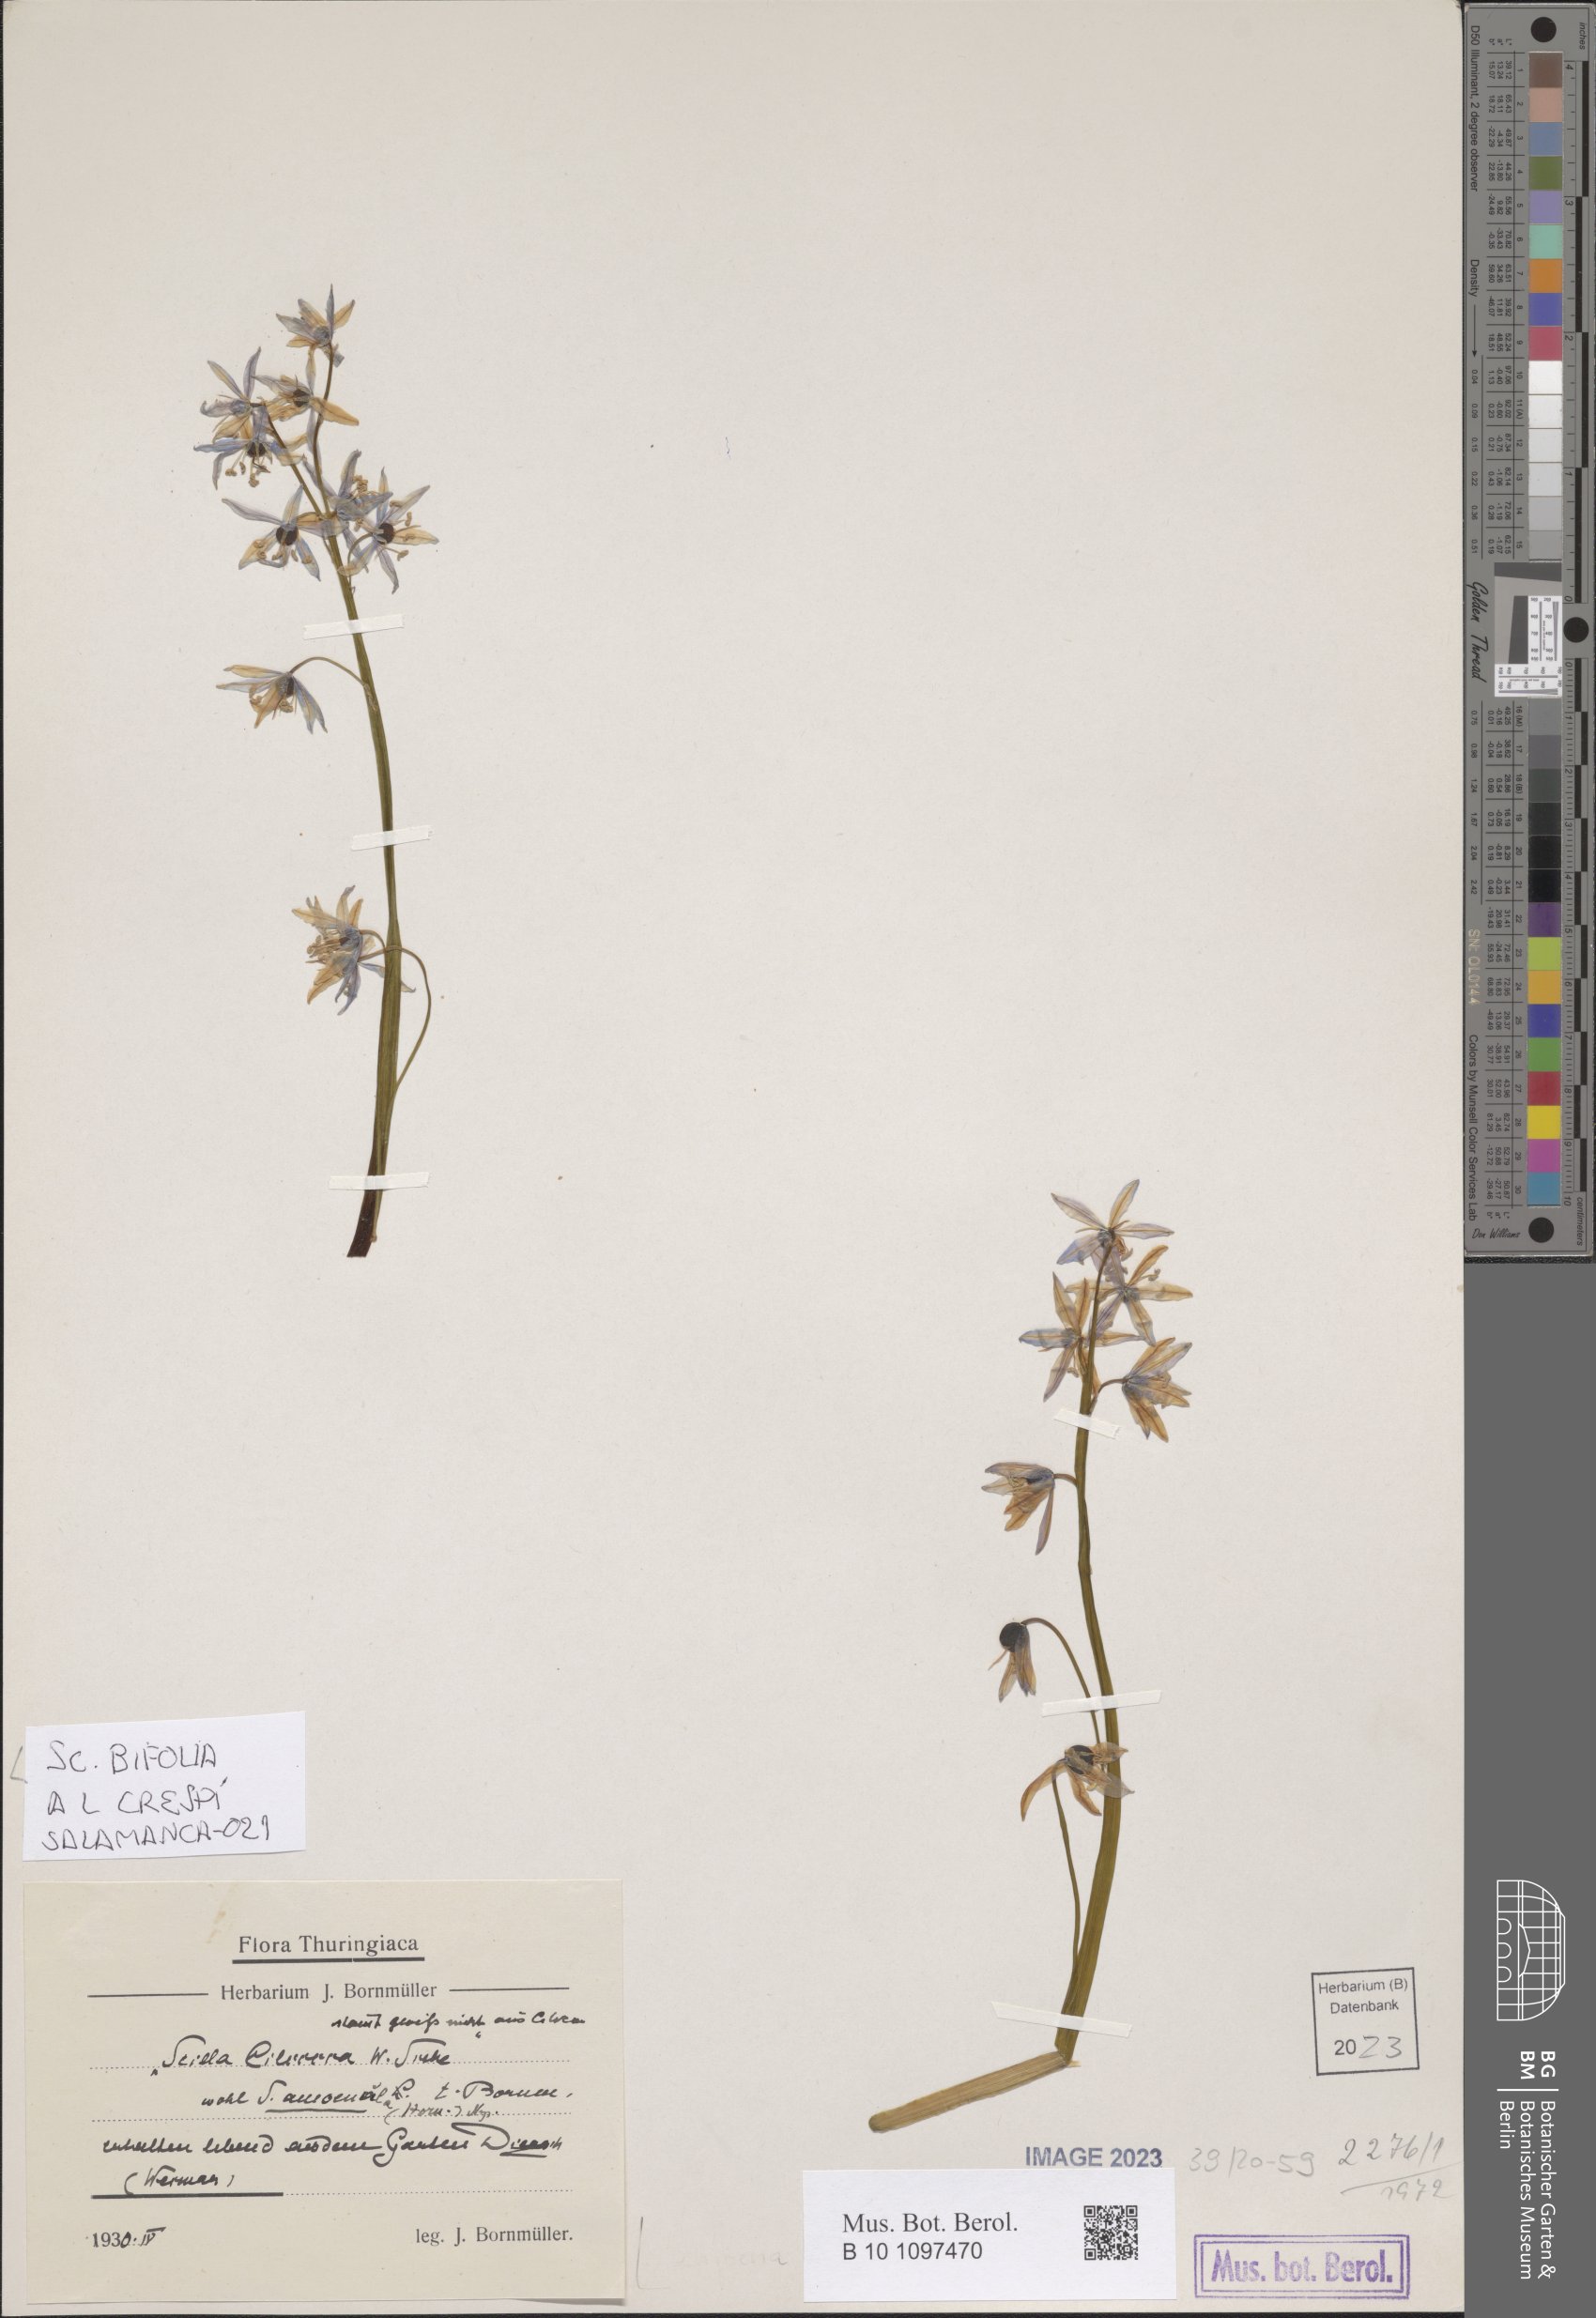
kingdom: Plantae
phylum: Tracheophyta
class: Liliopsida
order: Asparagales
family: Asparagaceae
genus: Scilla
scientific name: Scilla bifolia
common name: Alpine squill
